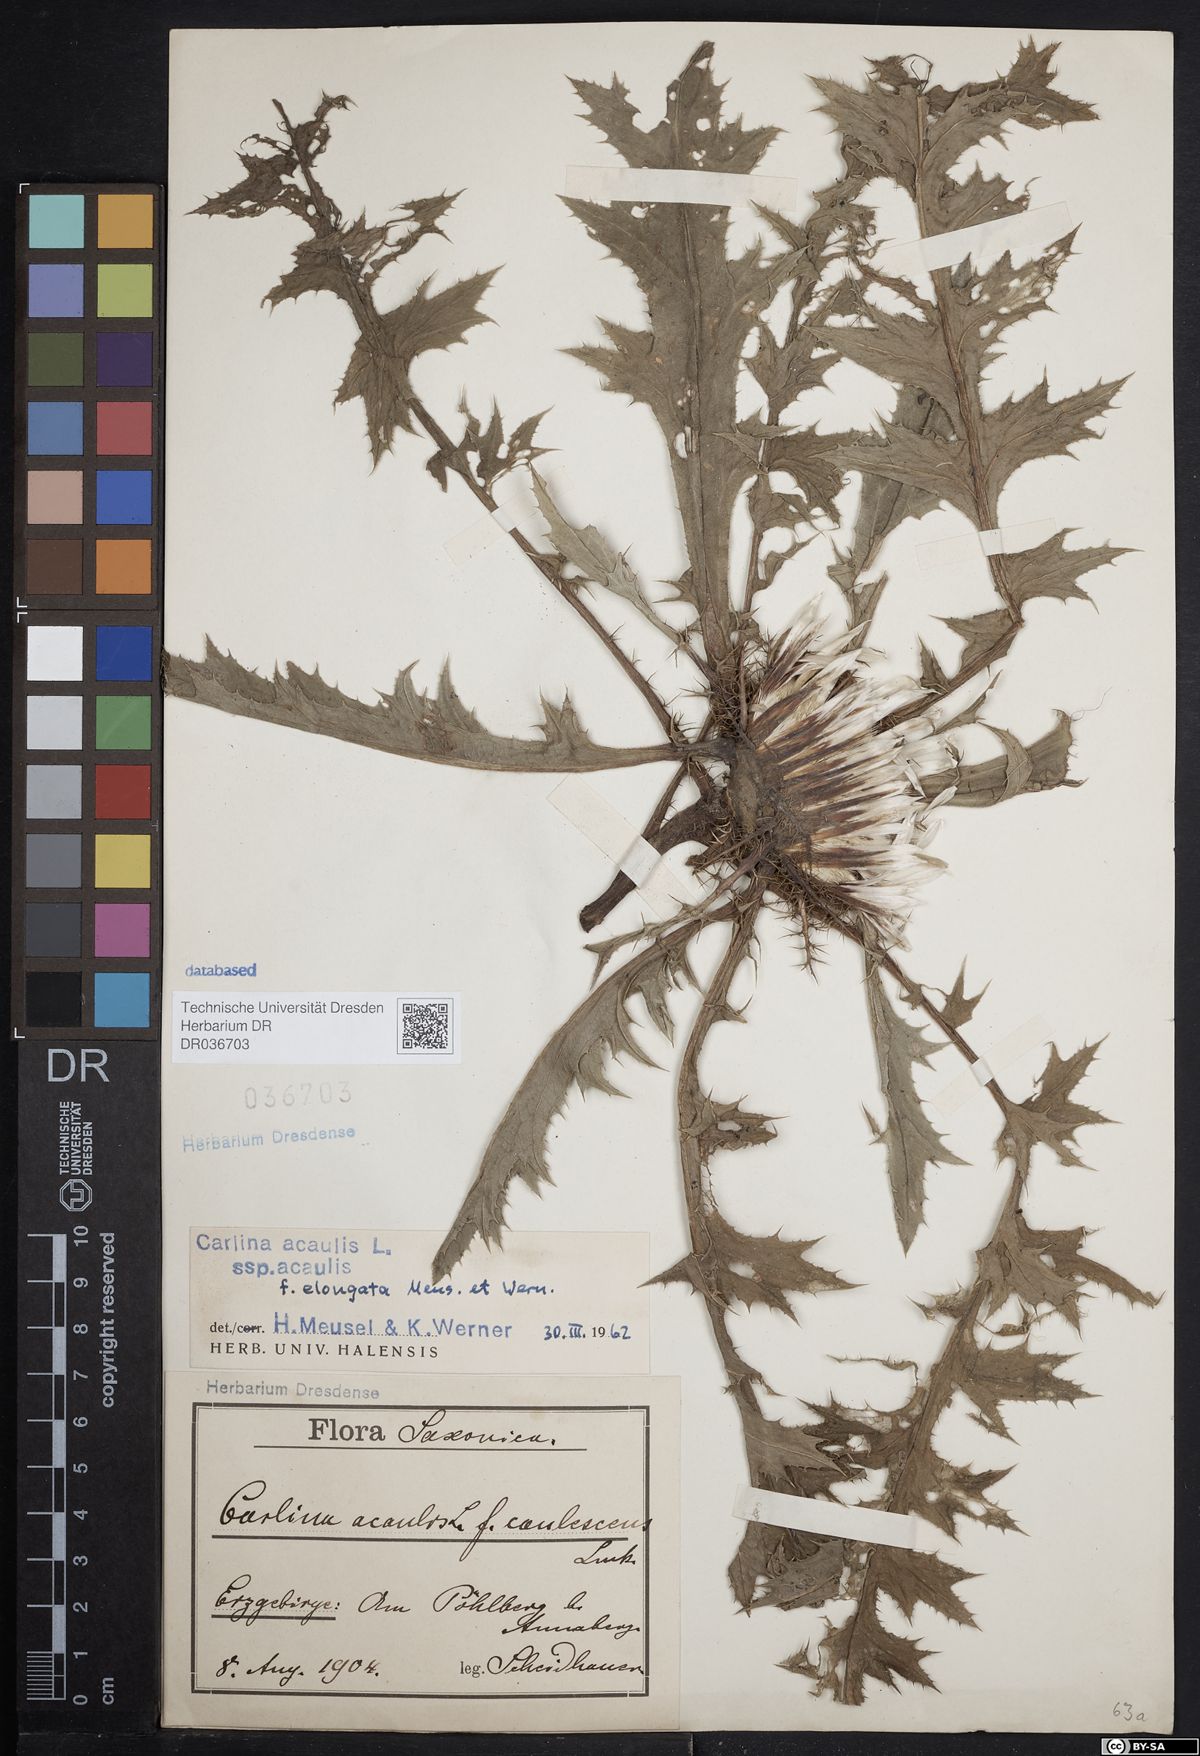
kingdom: Plantae
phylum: Tracheophyta
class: Magnoliopsida
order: Asterales
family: Asteraceae
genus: Carlina
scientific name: Carlina acaulis
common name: Stemless carline thistle
